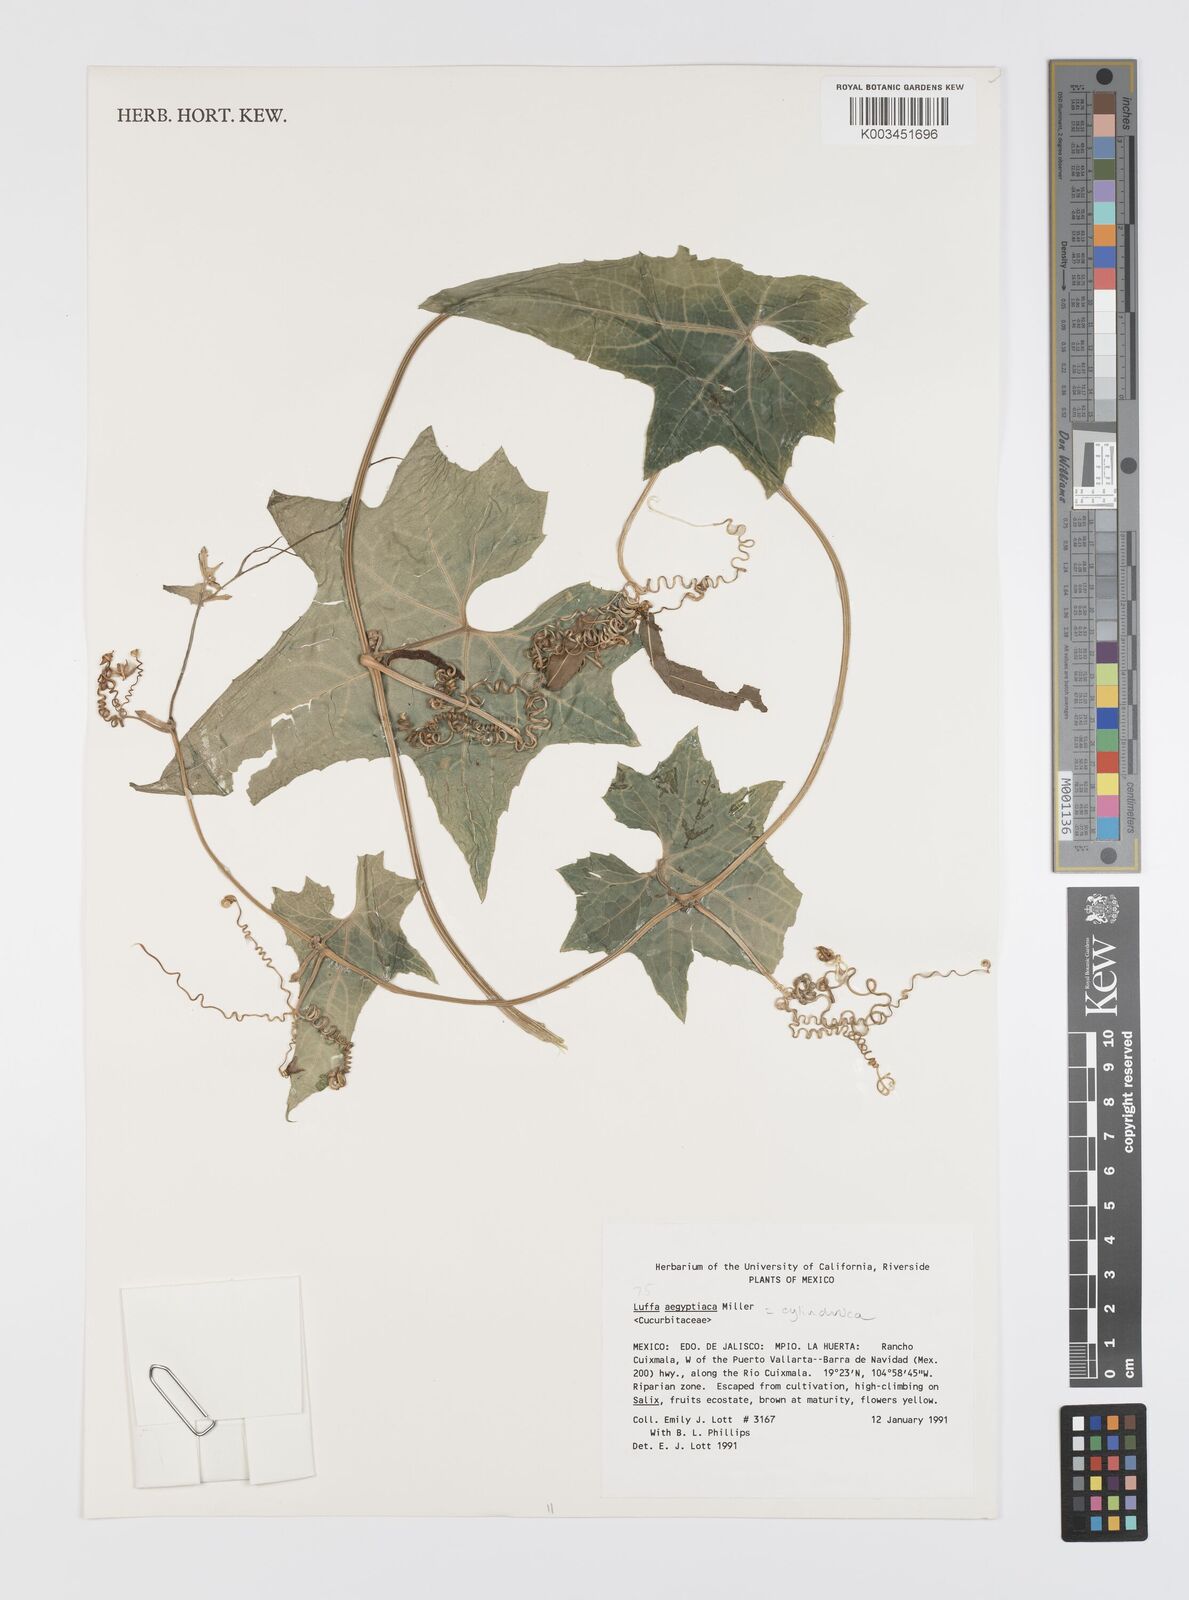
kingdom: Plantae
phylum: Tracheophyta
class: Magnoliopsida
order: Cucurbitales
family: Cucurbitaceae
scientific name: Cucurbitaceae
